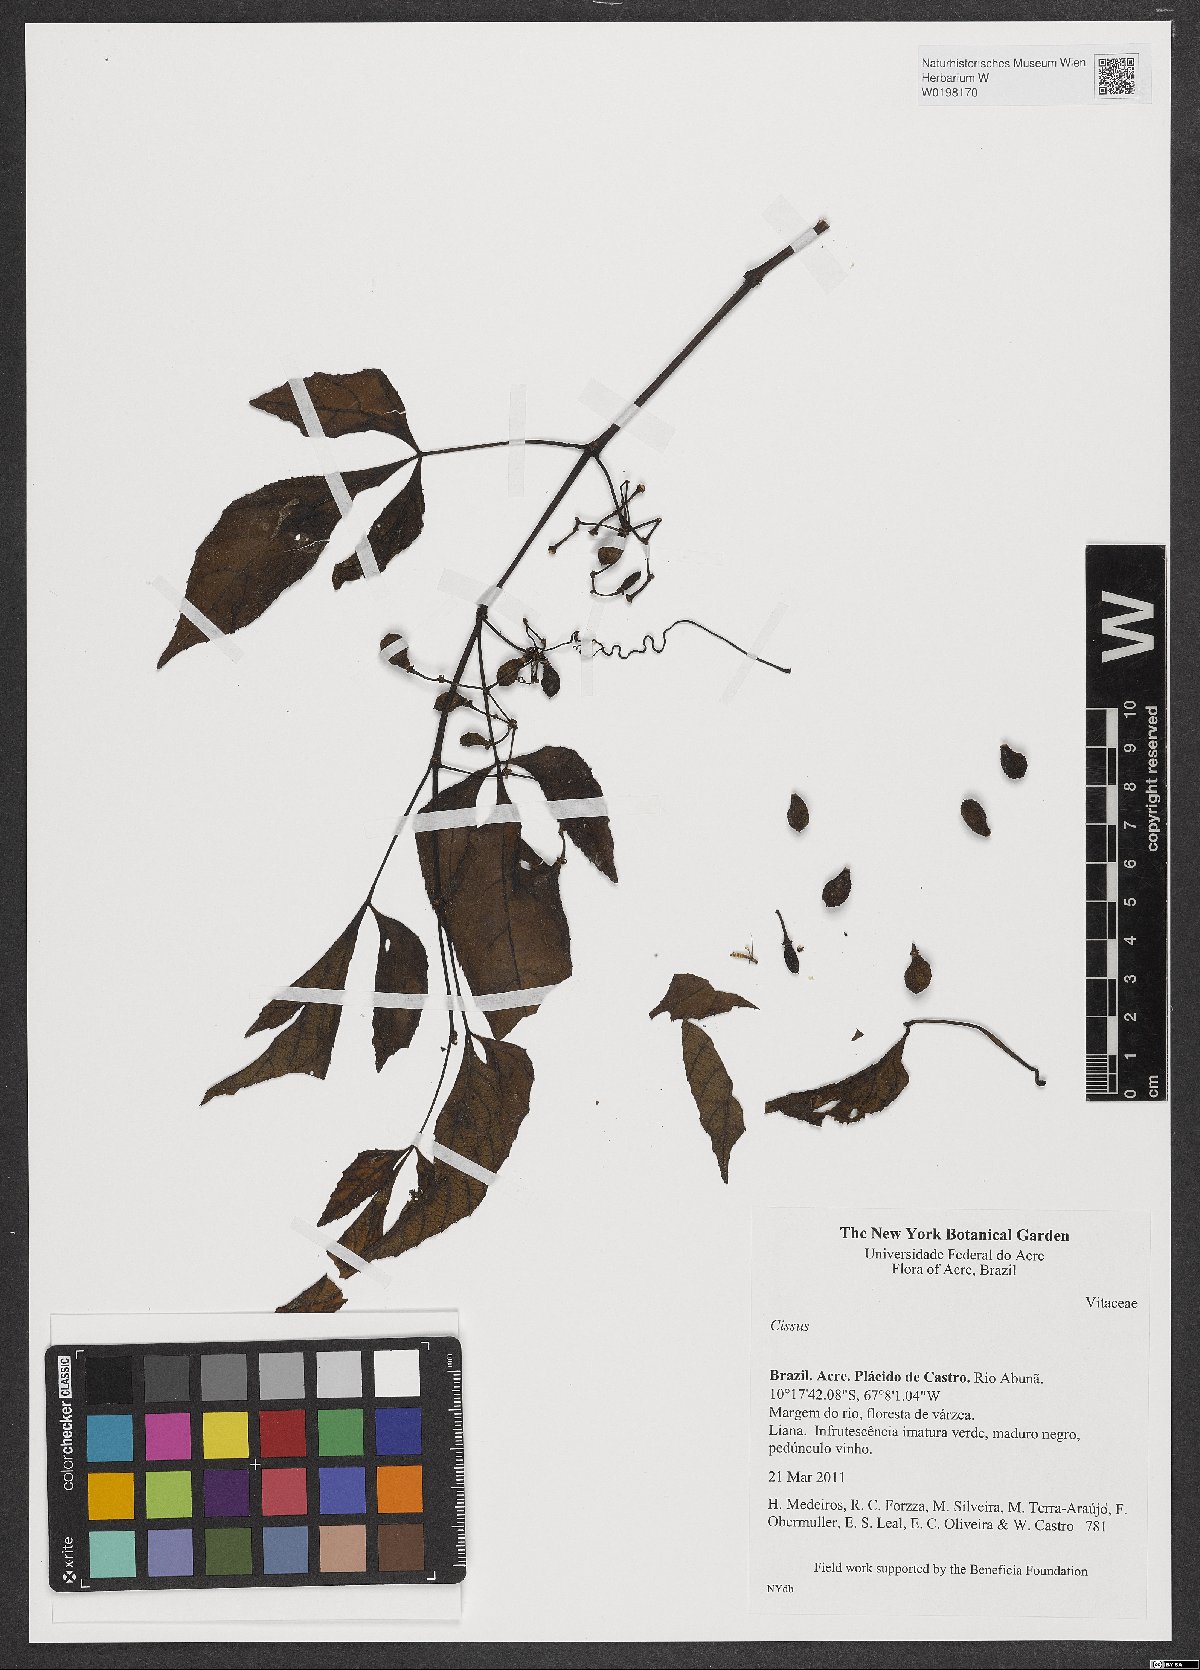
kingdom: Plantae
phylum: Tracheophyta
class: Magnoliopsida
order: Vitales
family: Vitaceae
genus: Cissus
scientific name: Cissus
